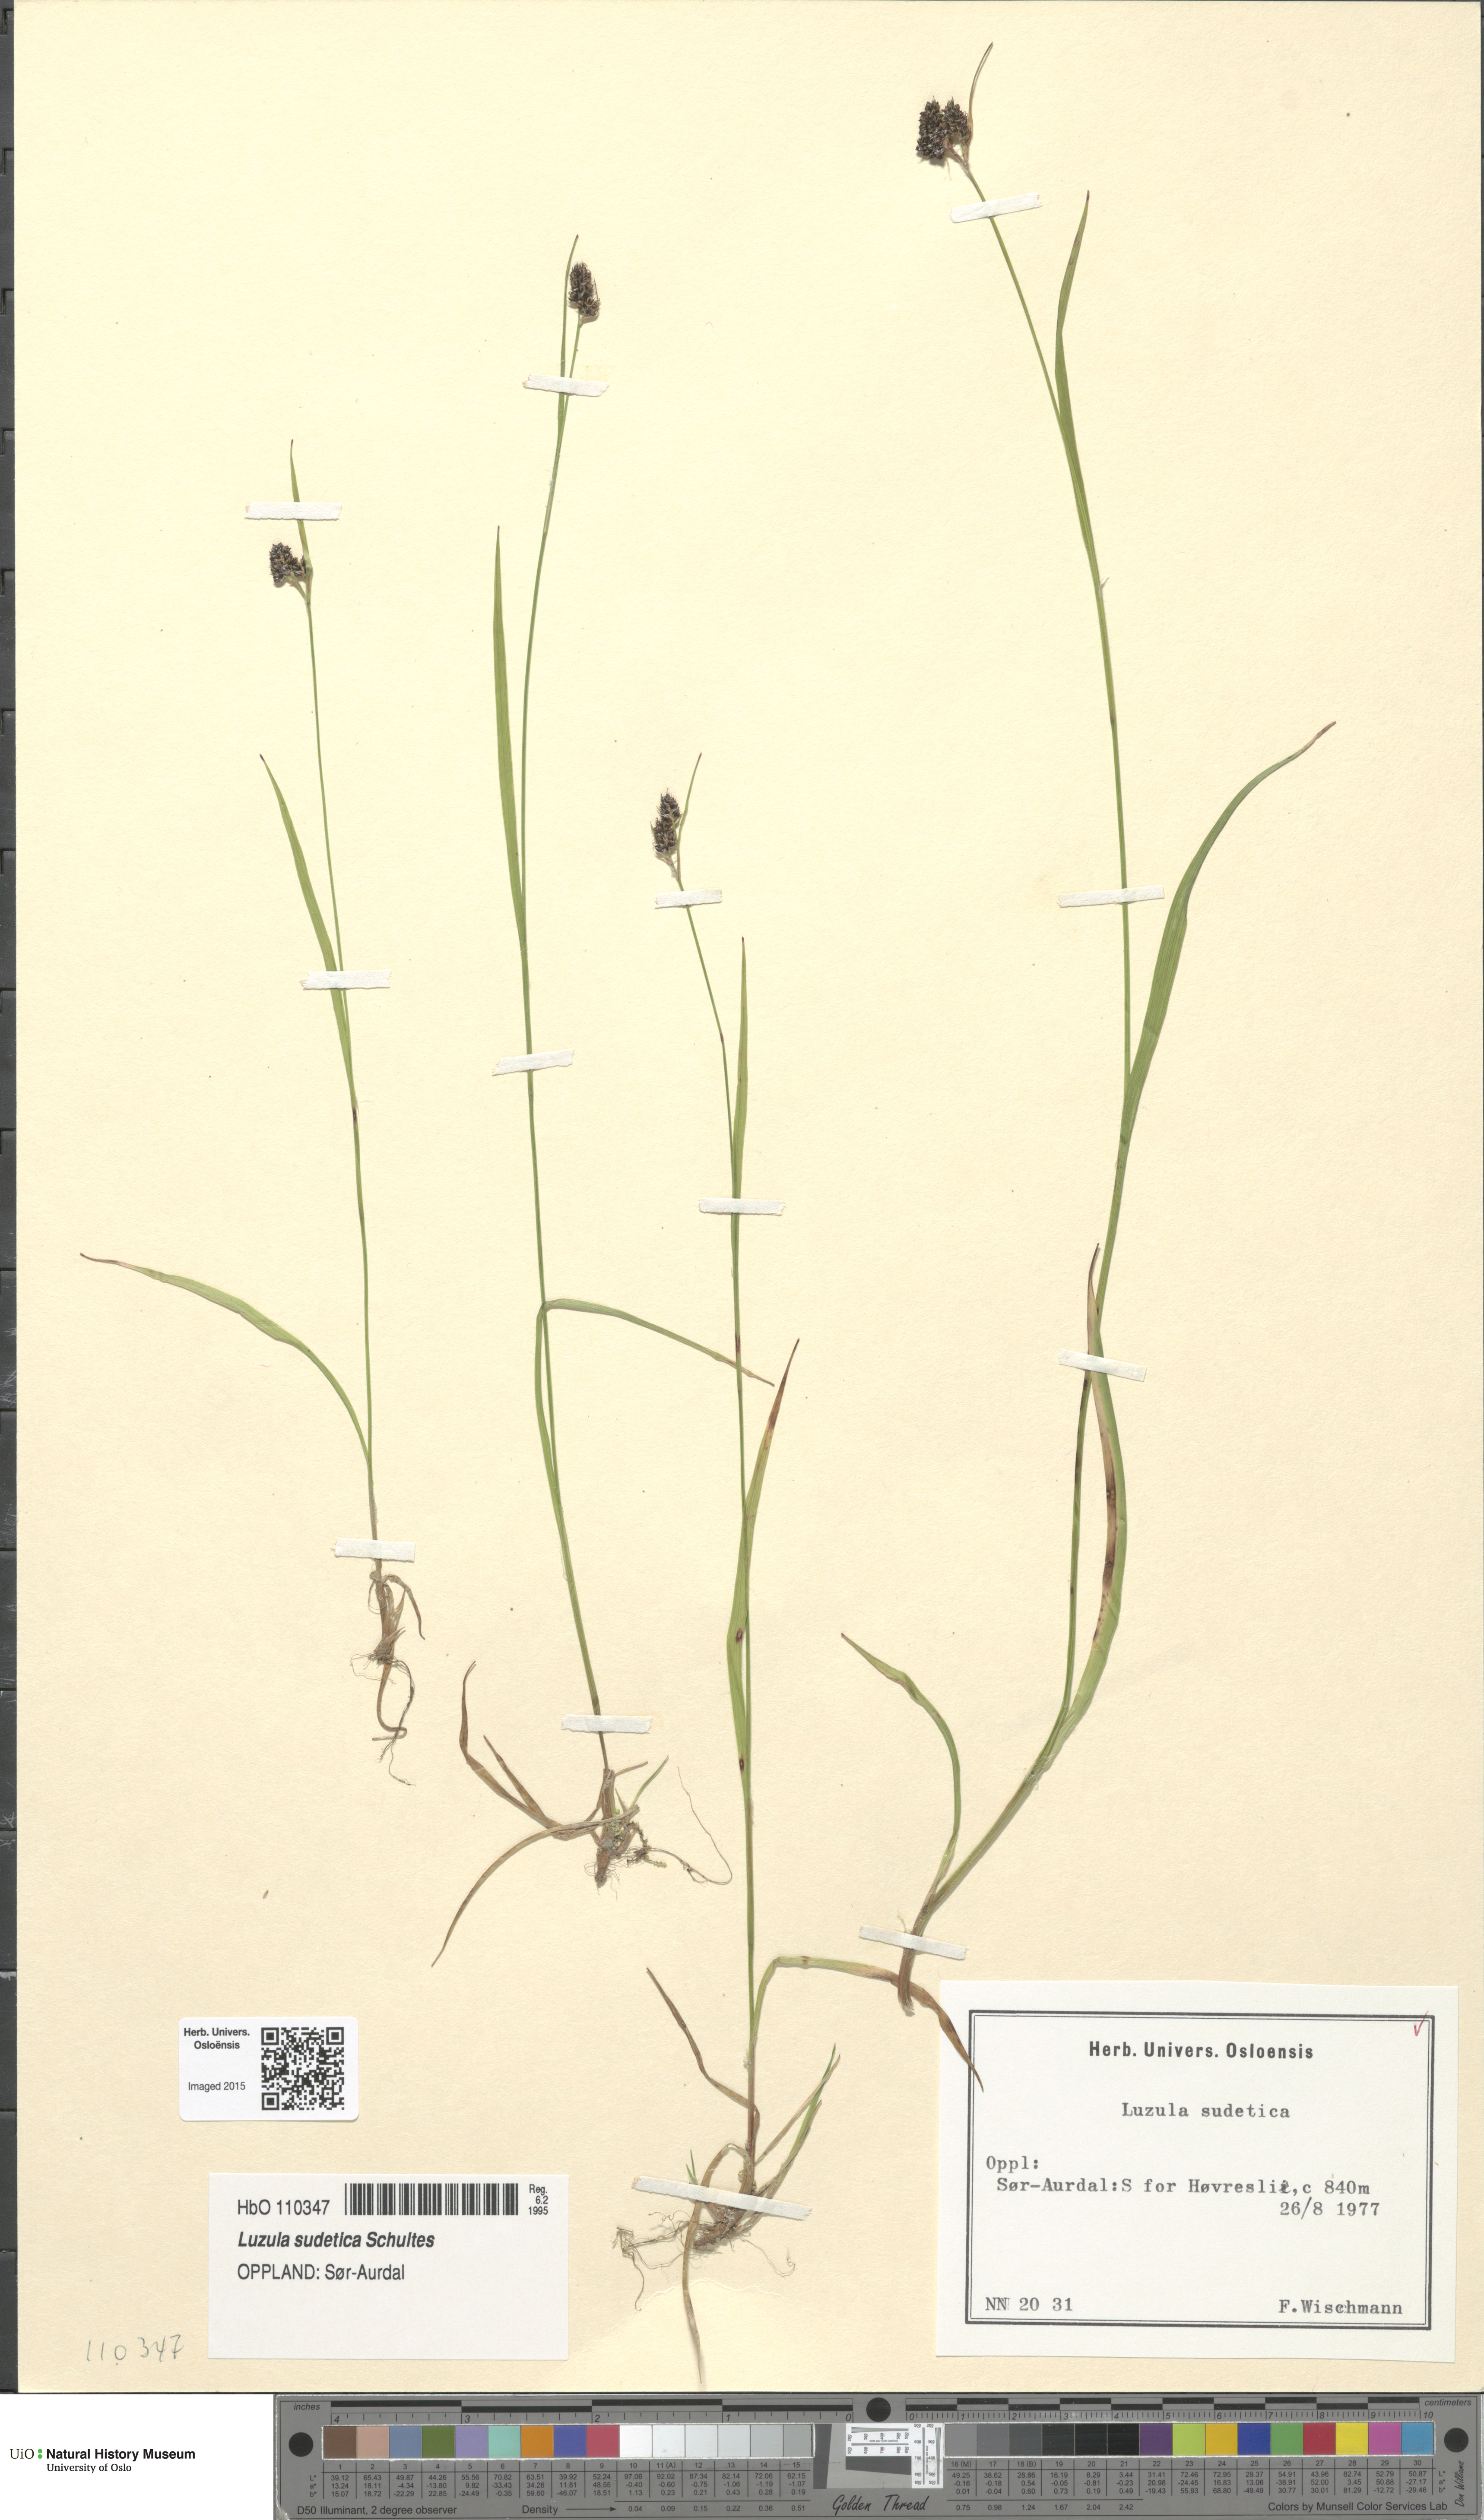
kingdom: Plantae
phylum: Tracheophyta
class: Liliopsida
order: Poales
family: Juncaceae
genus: Luzula
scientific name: Luzula sudetica
